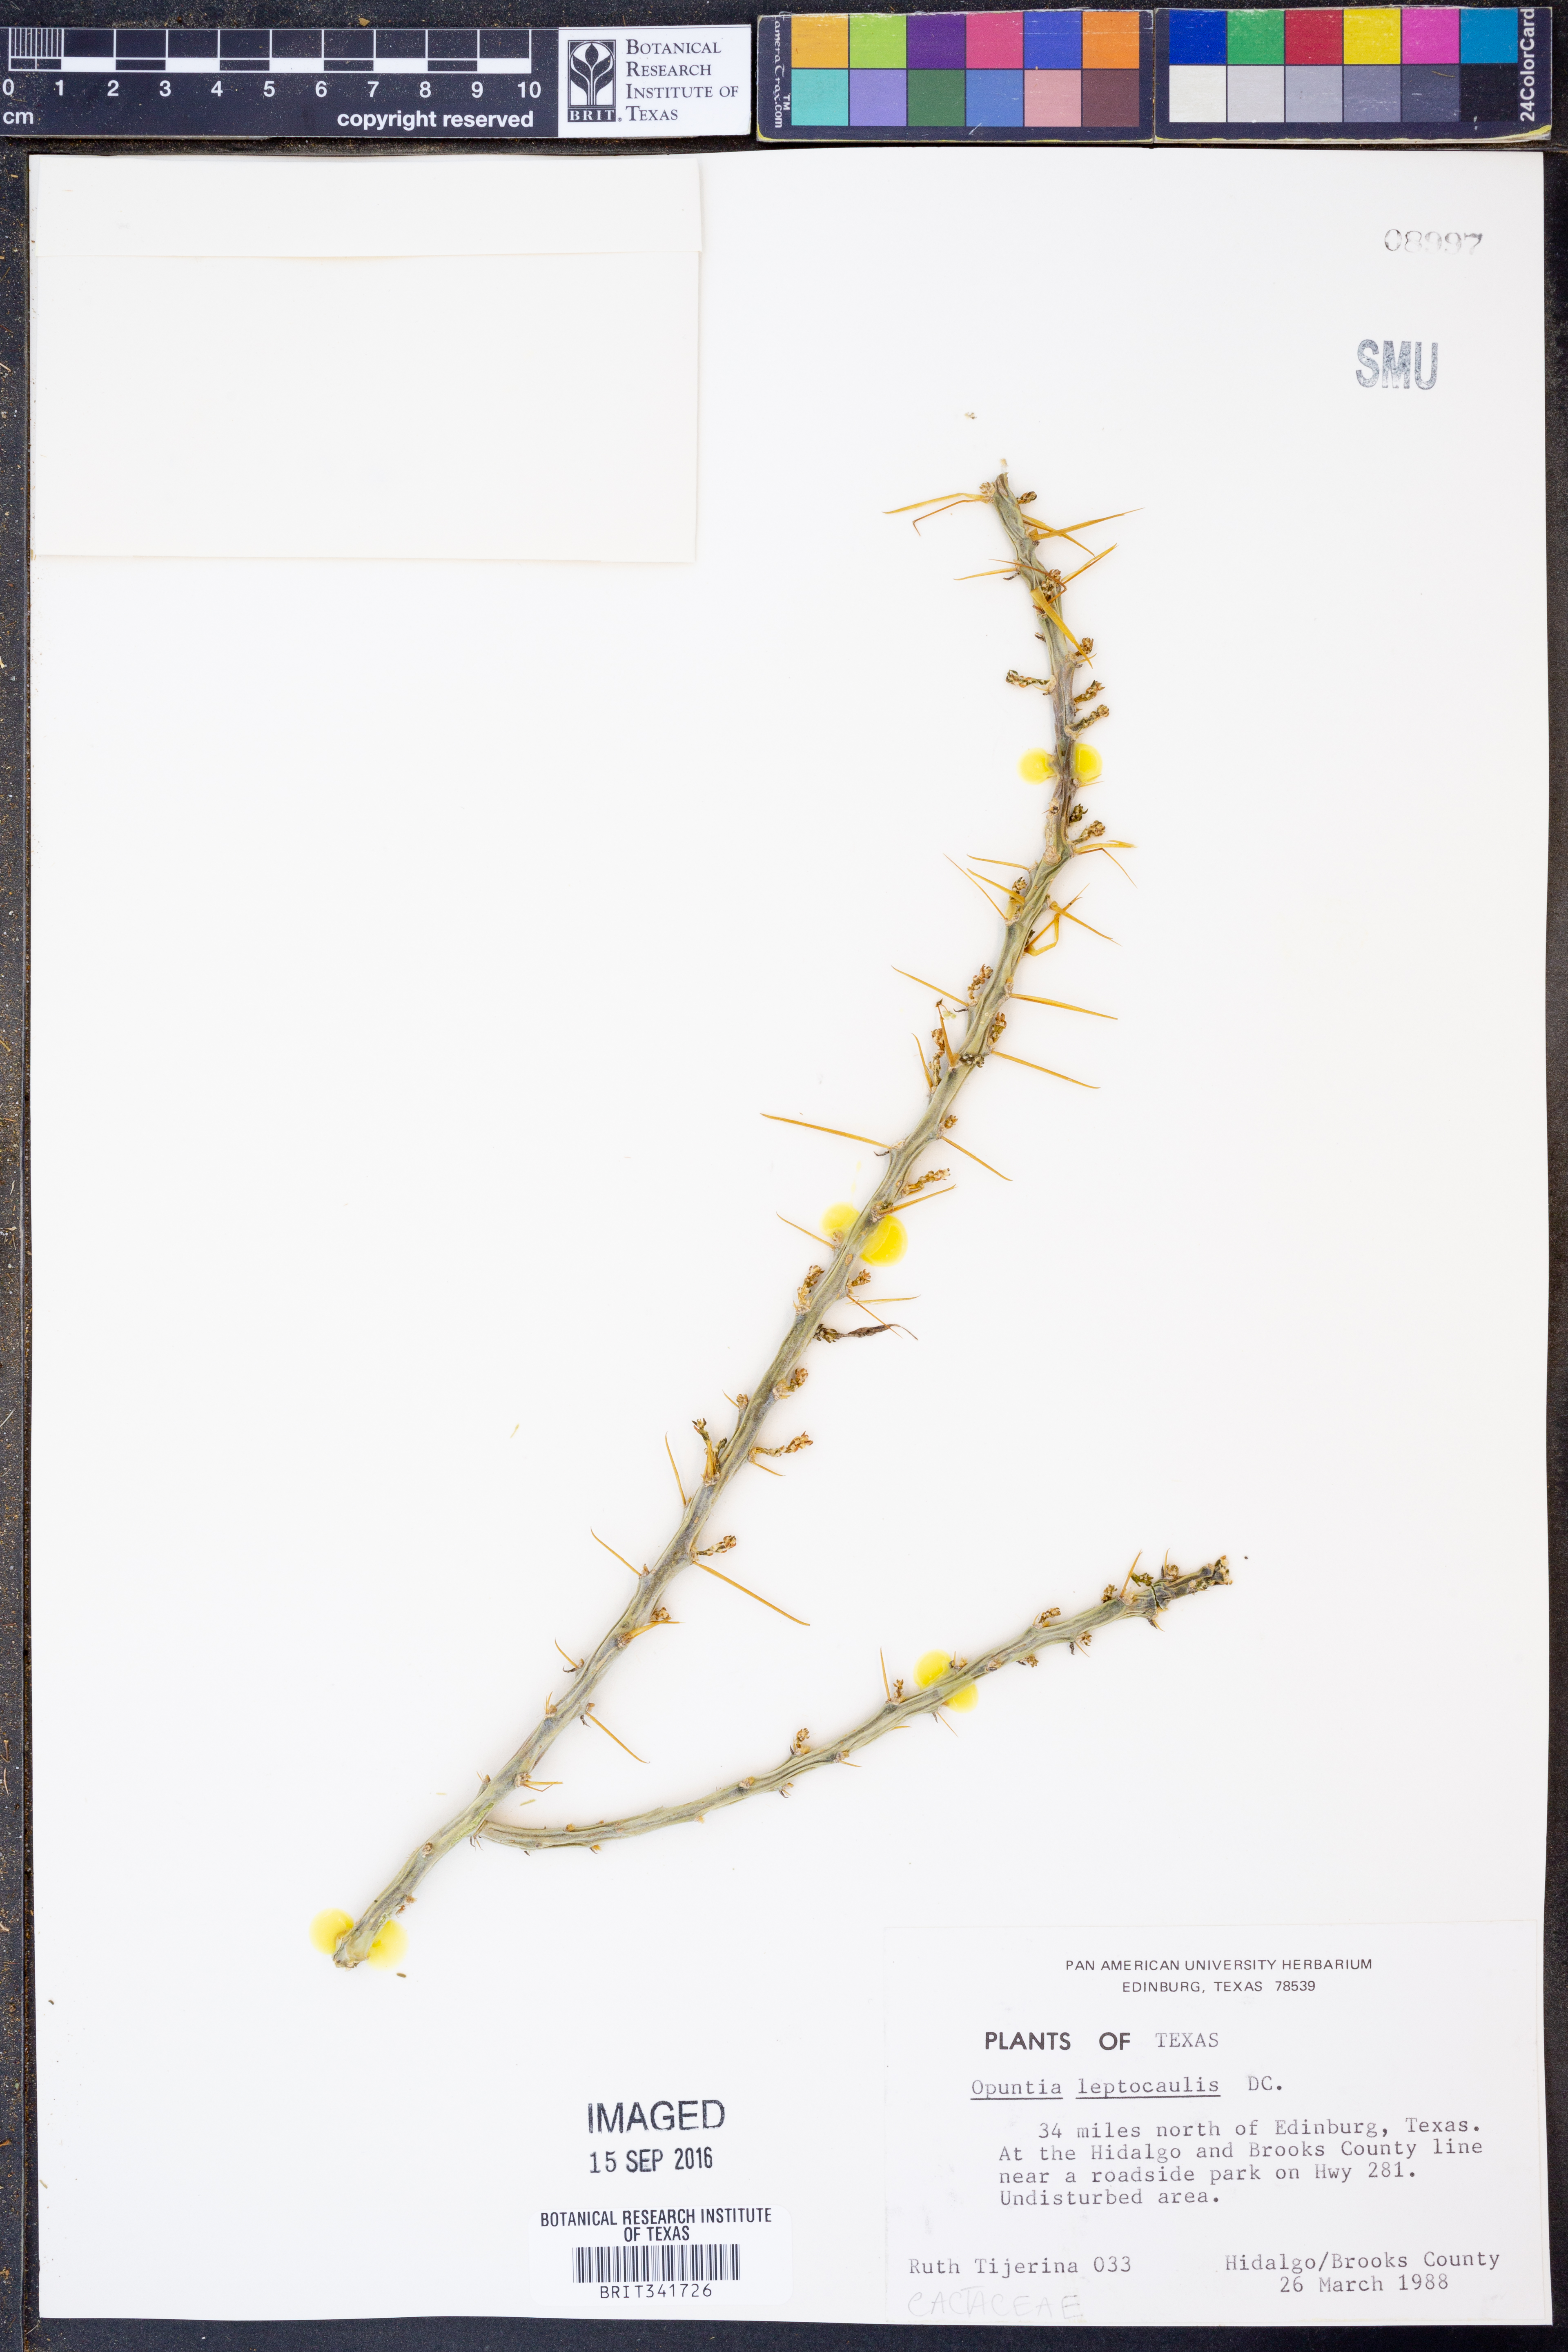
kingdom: Plantae
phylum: Tracheophyta
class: Magnoliopsida
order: Caryophyllales
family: Cactaceae
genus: Cylindropuntia
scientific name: Cylindropuntia leptocaulis
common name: Christmas cactus
